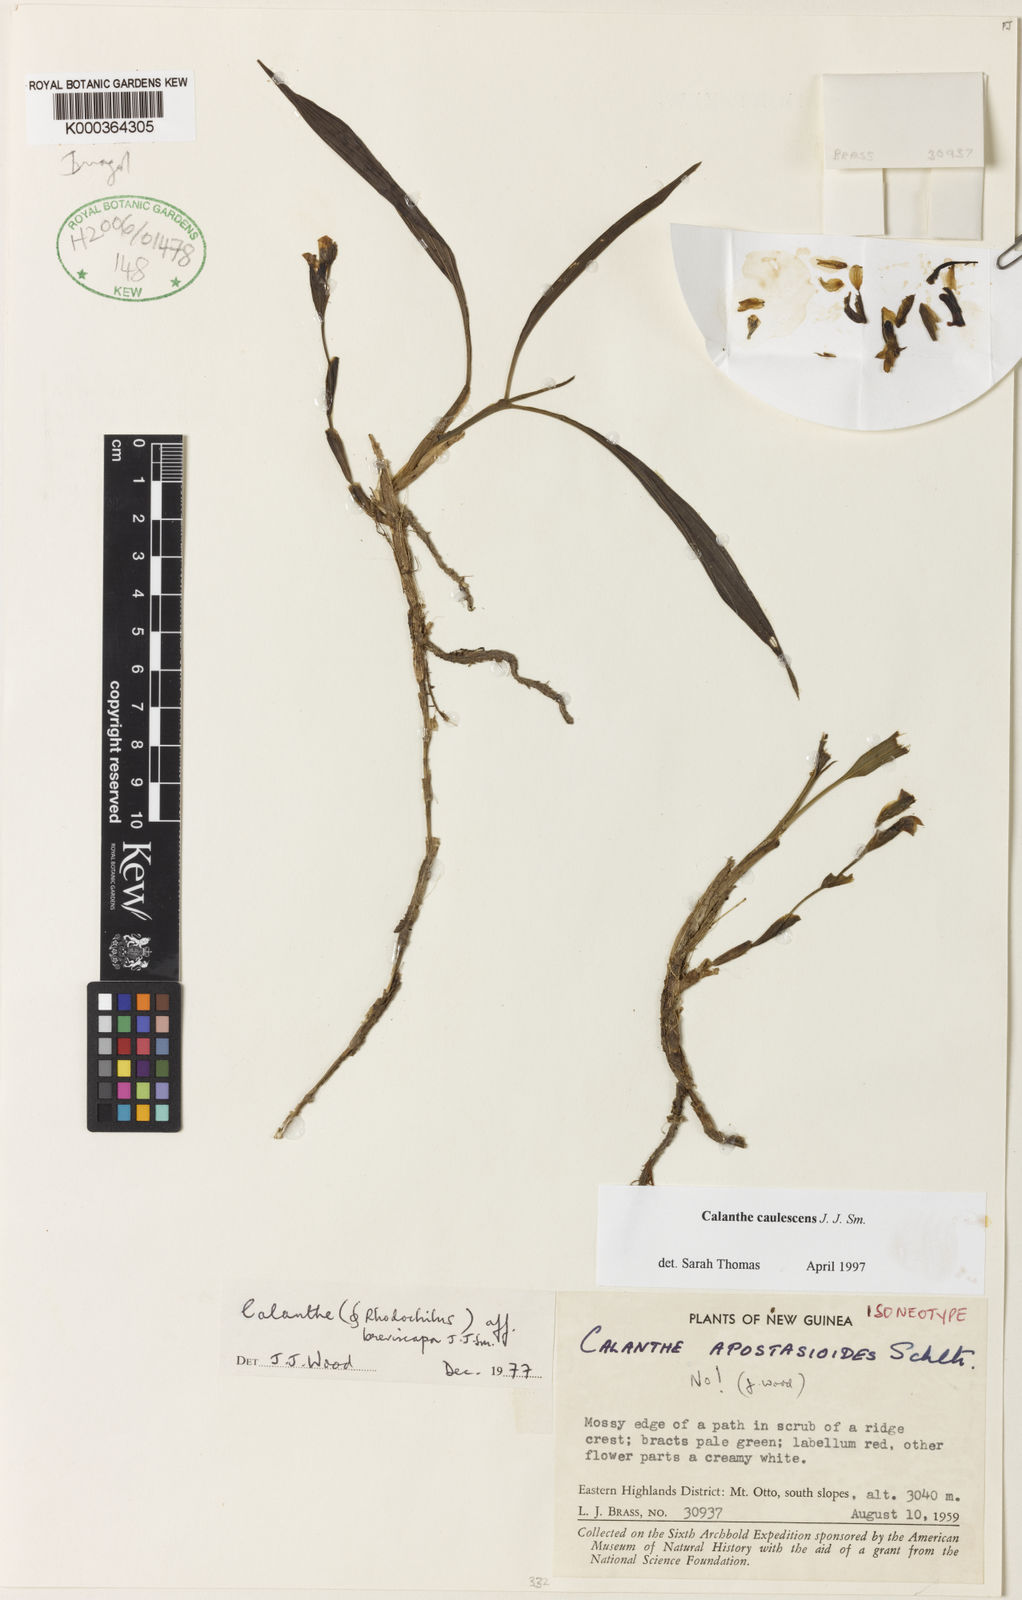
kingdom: Plantae
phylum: Tracheophyta
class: Liliopsida
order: Asparagales
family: Orchidaceae
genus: Calanthe
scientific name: Calanthe caulescens
